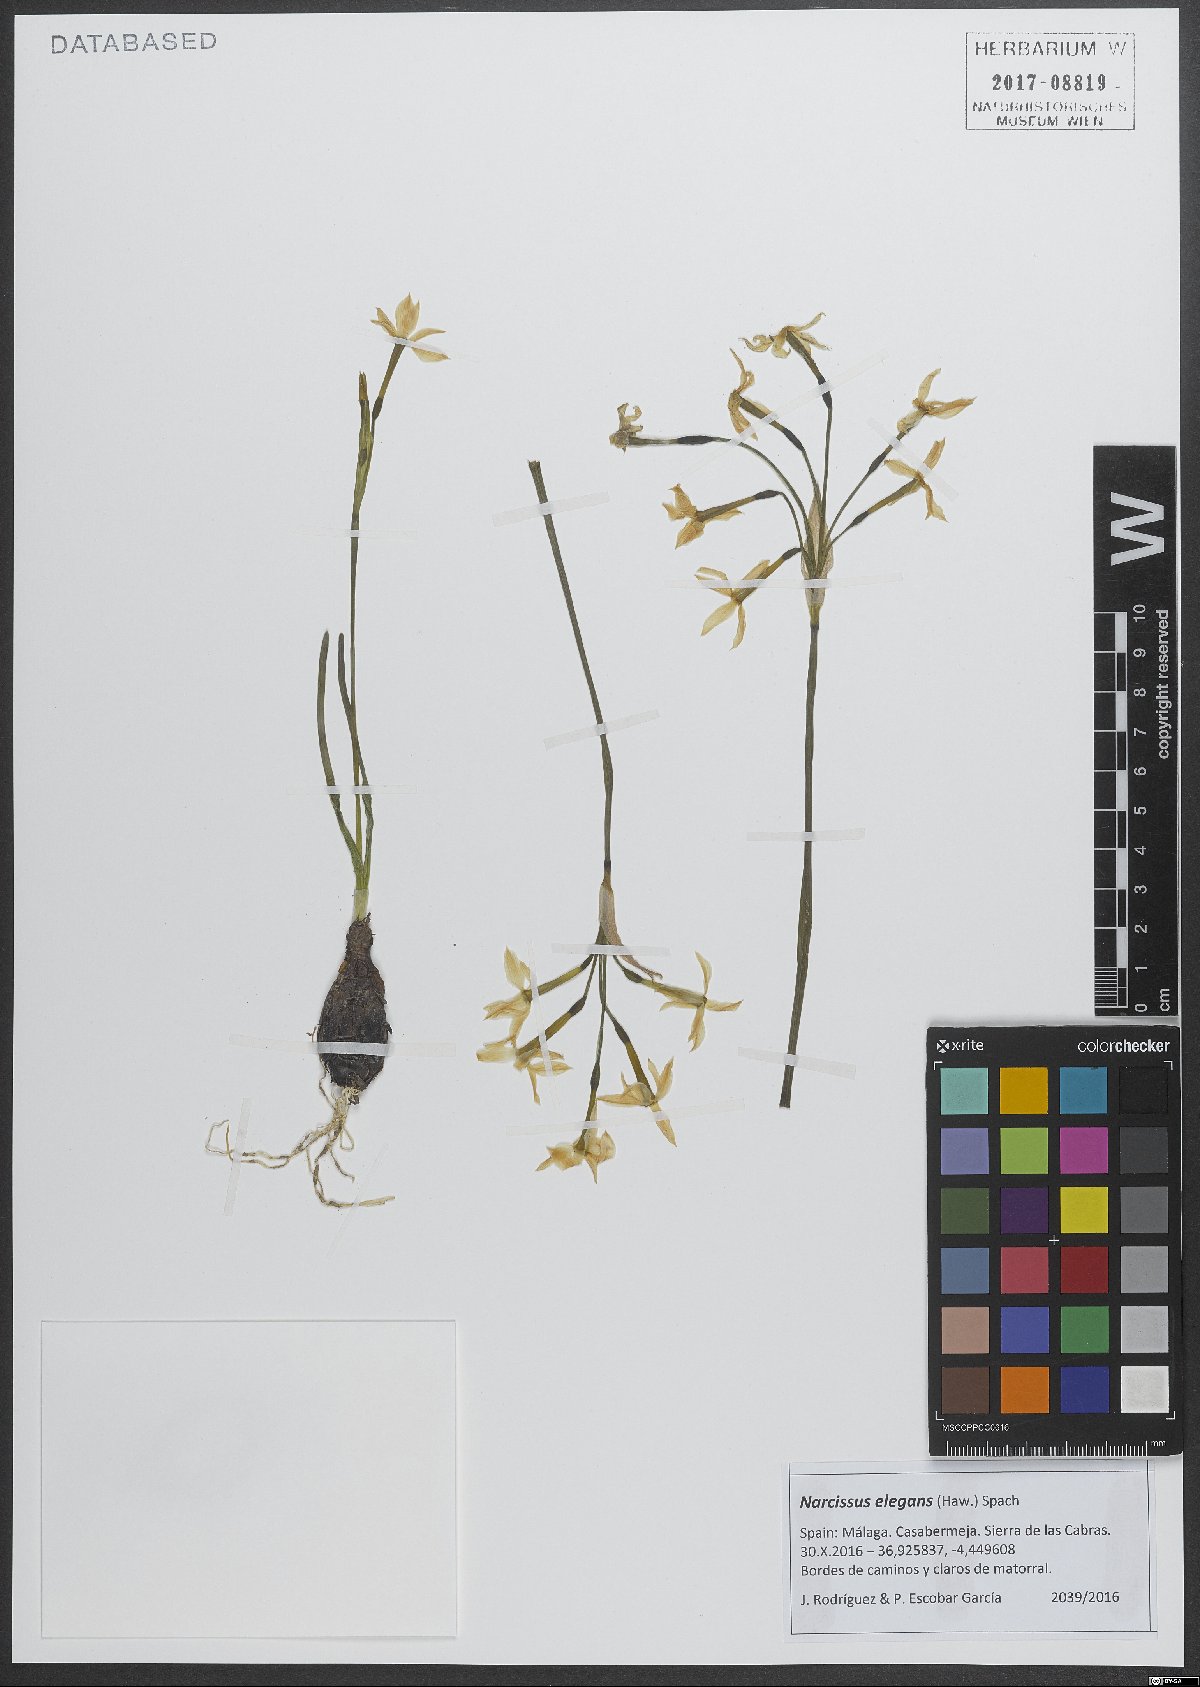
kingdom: Plantae
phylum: Tracheophyta
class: Liliopsida
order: Asparagales
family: Amaryllidaceae
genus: Narcissus
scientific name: Narcissus obsoletus
